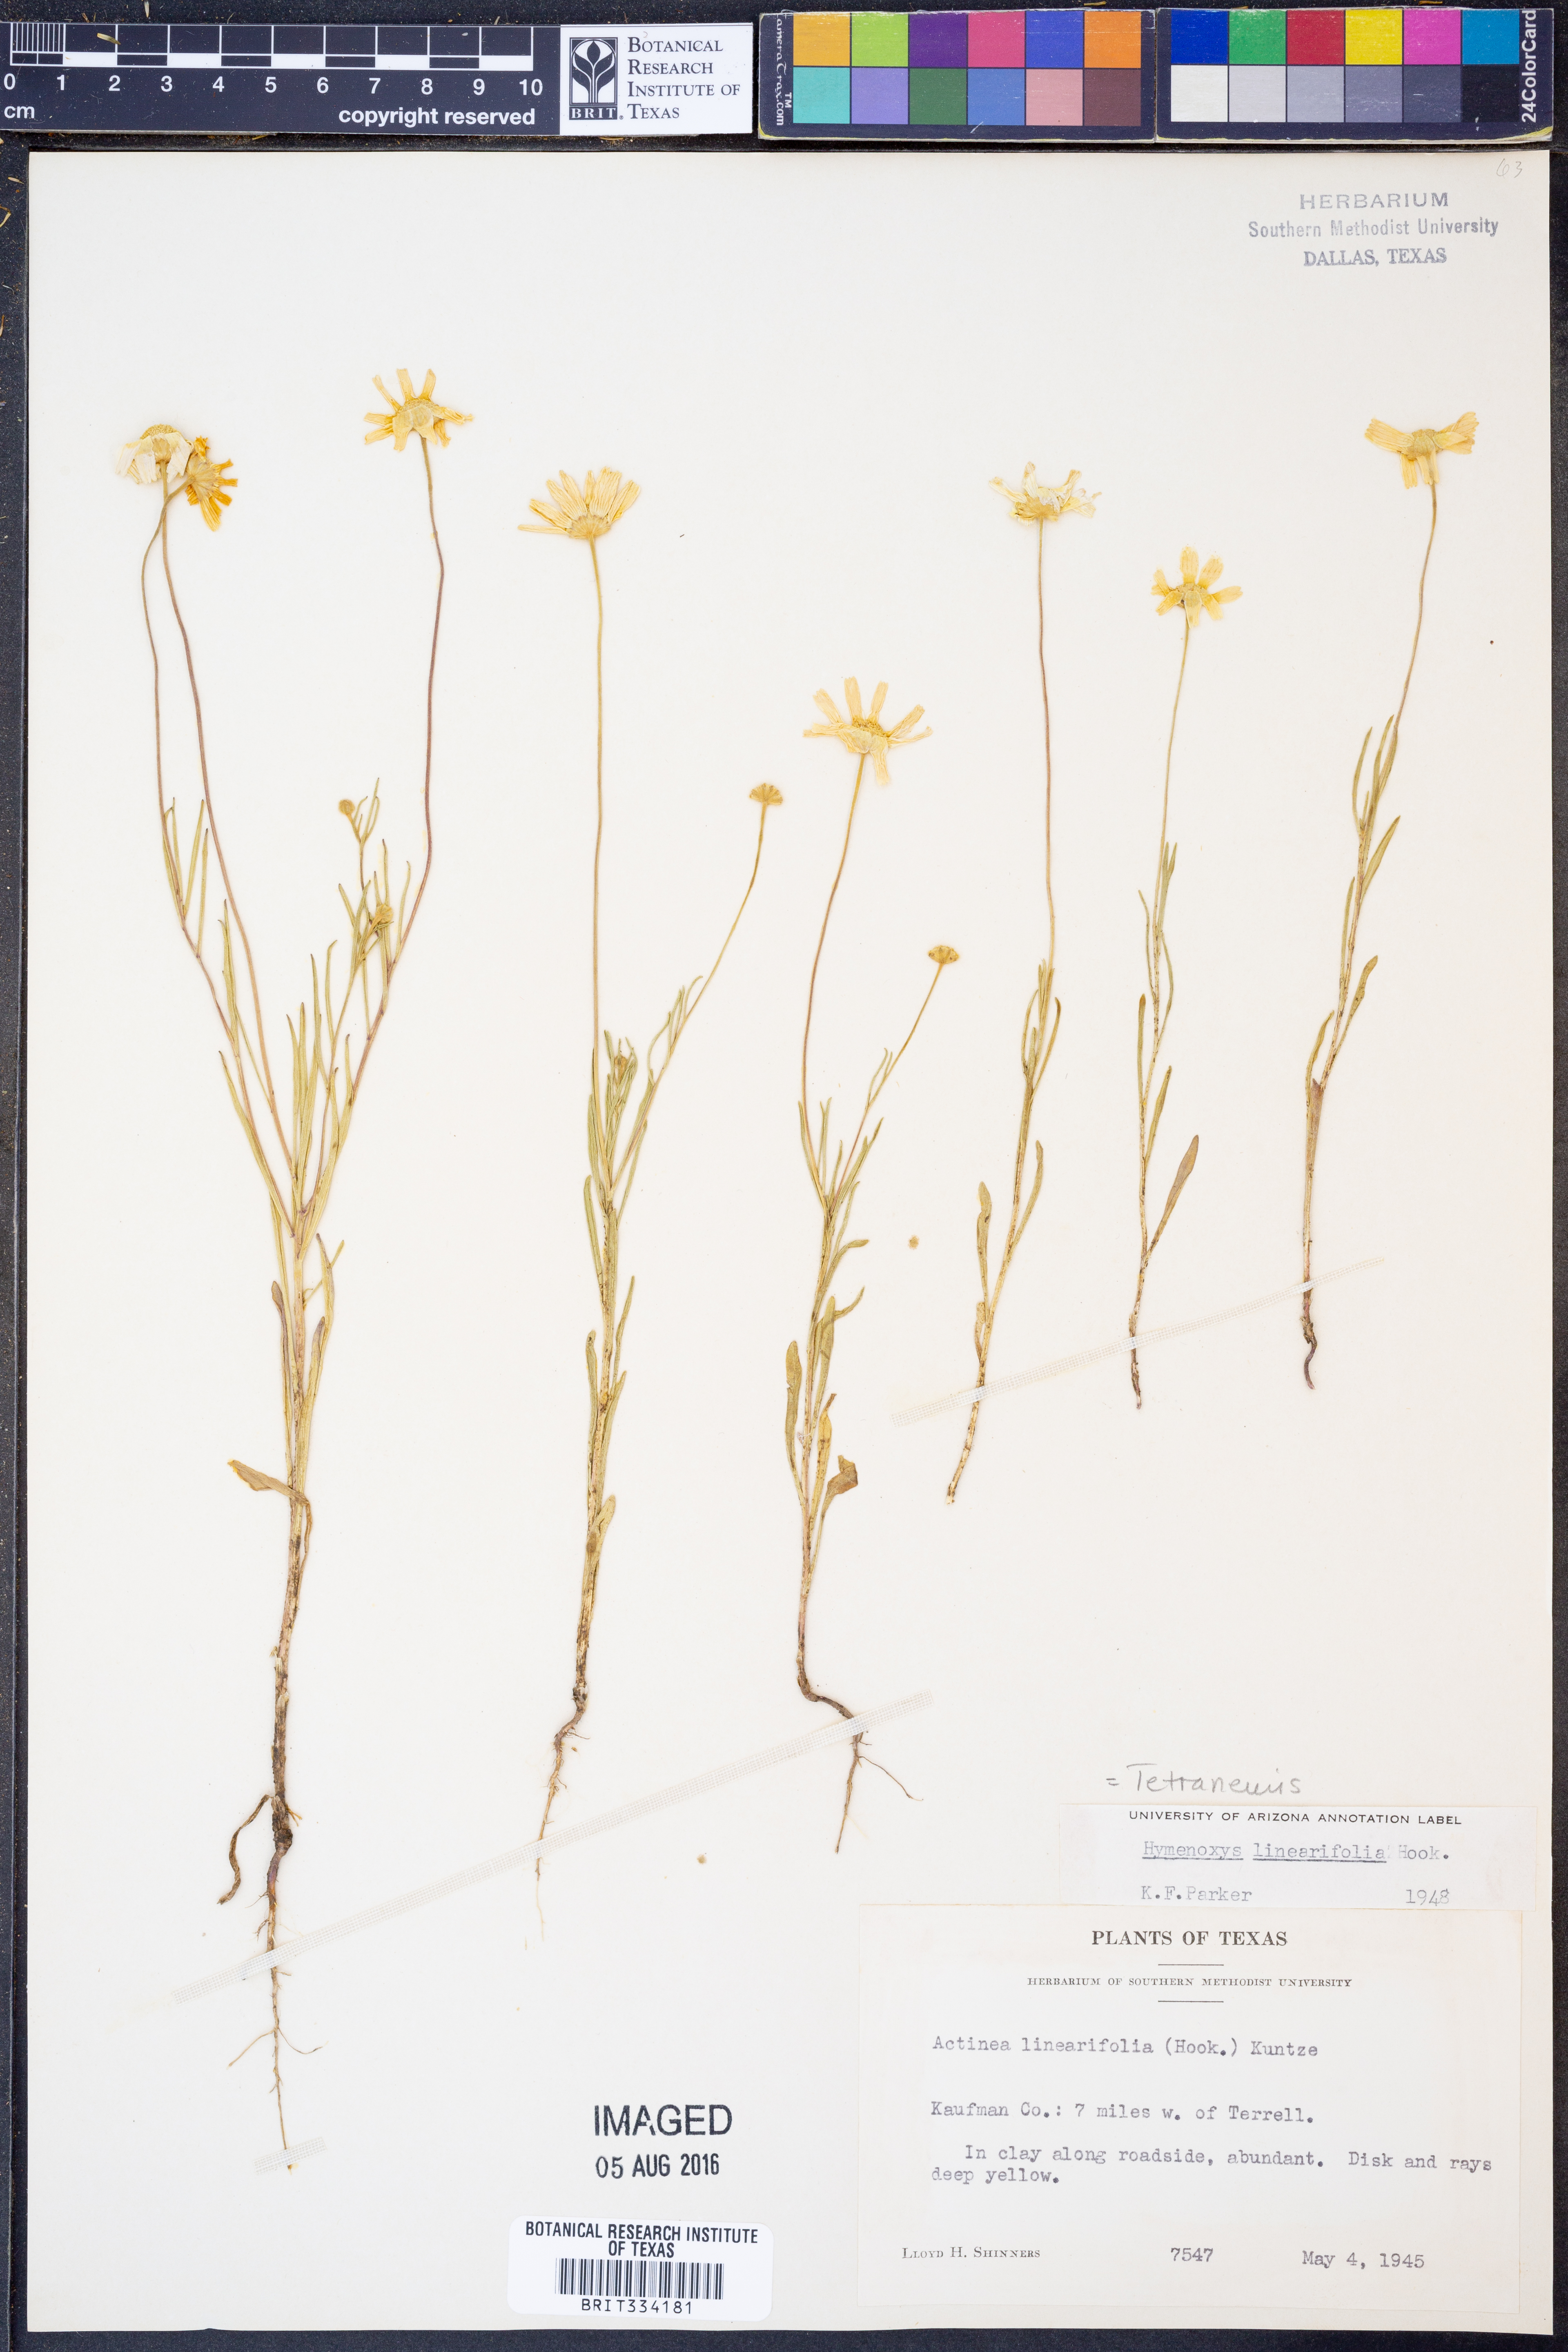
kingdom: Plantae
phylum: Tracheophyta
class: Magnoliopsida
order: Asterales
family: Asteraceae
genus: Tetraneuris
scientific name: Tetraneuris linearifolia
